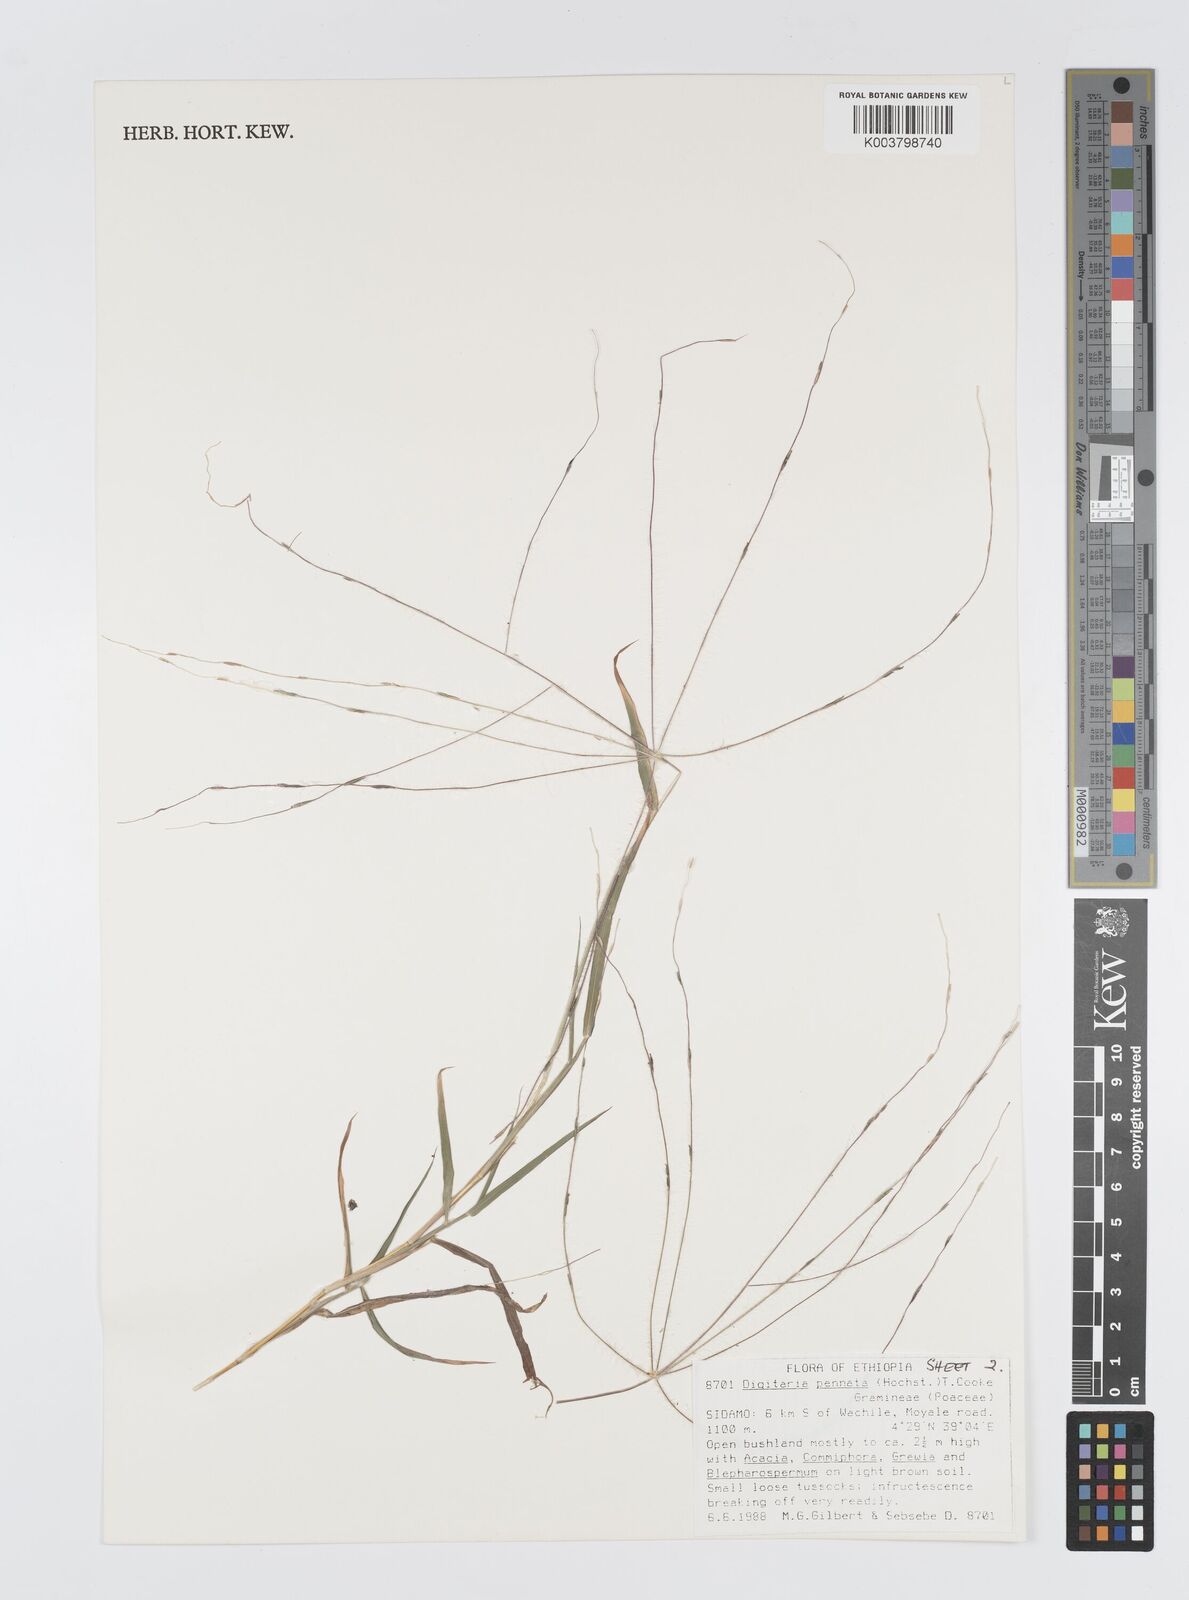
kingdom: Plantae
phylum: Tracheophyta
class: Liliopsida
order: Poales
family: Poaceae
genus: Digitaria
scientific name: Digitaria pennata
